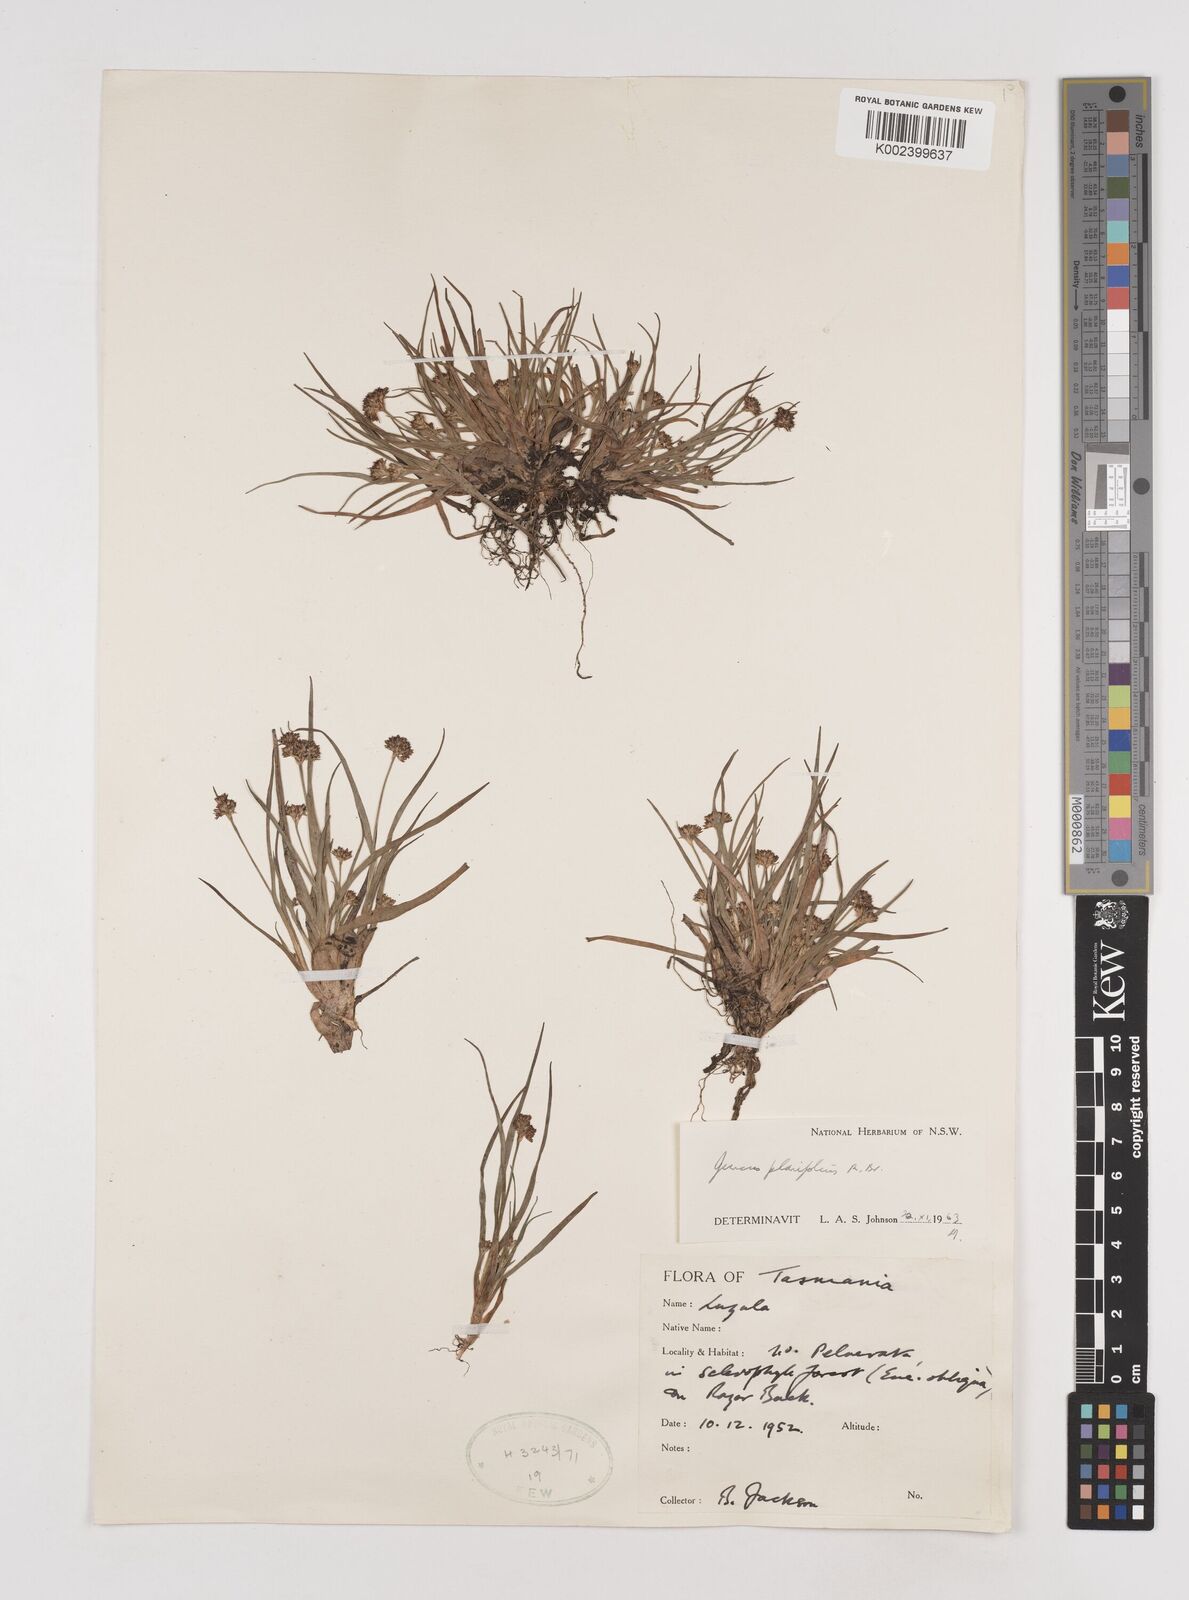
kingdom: Plantae
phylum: Tracheophyta
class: Liliopsida
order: Poales
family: Juncaceae
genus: Juncus
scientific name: Juncus planifolius
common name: Broadleaf rush
